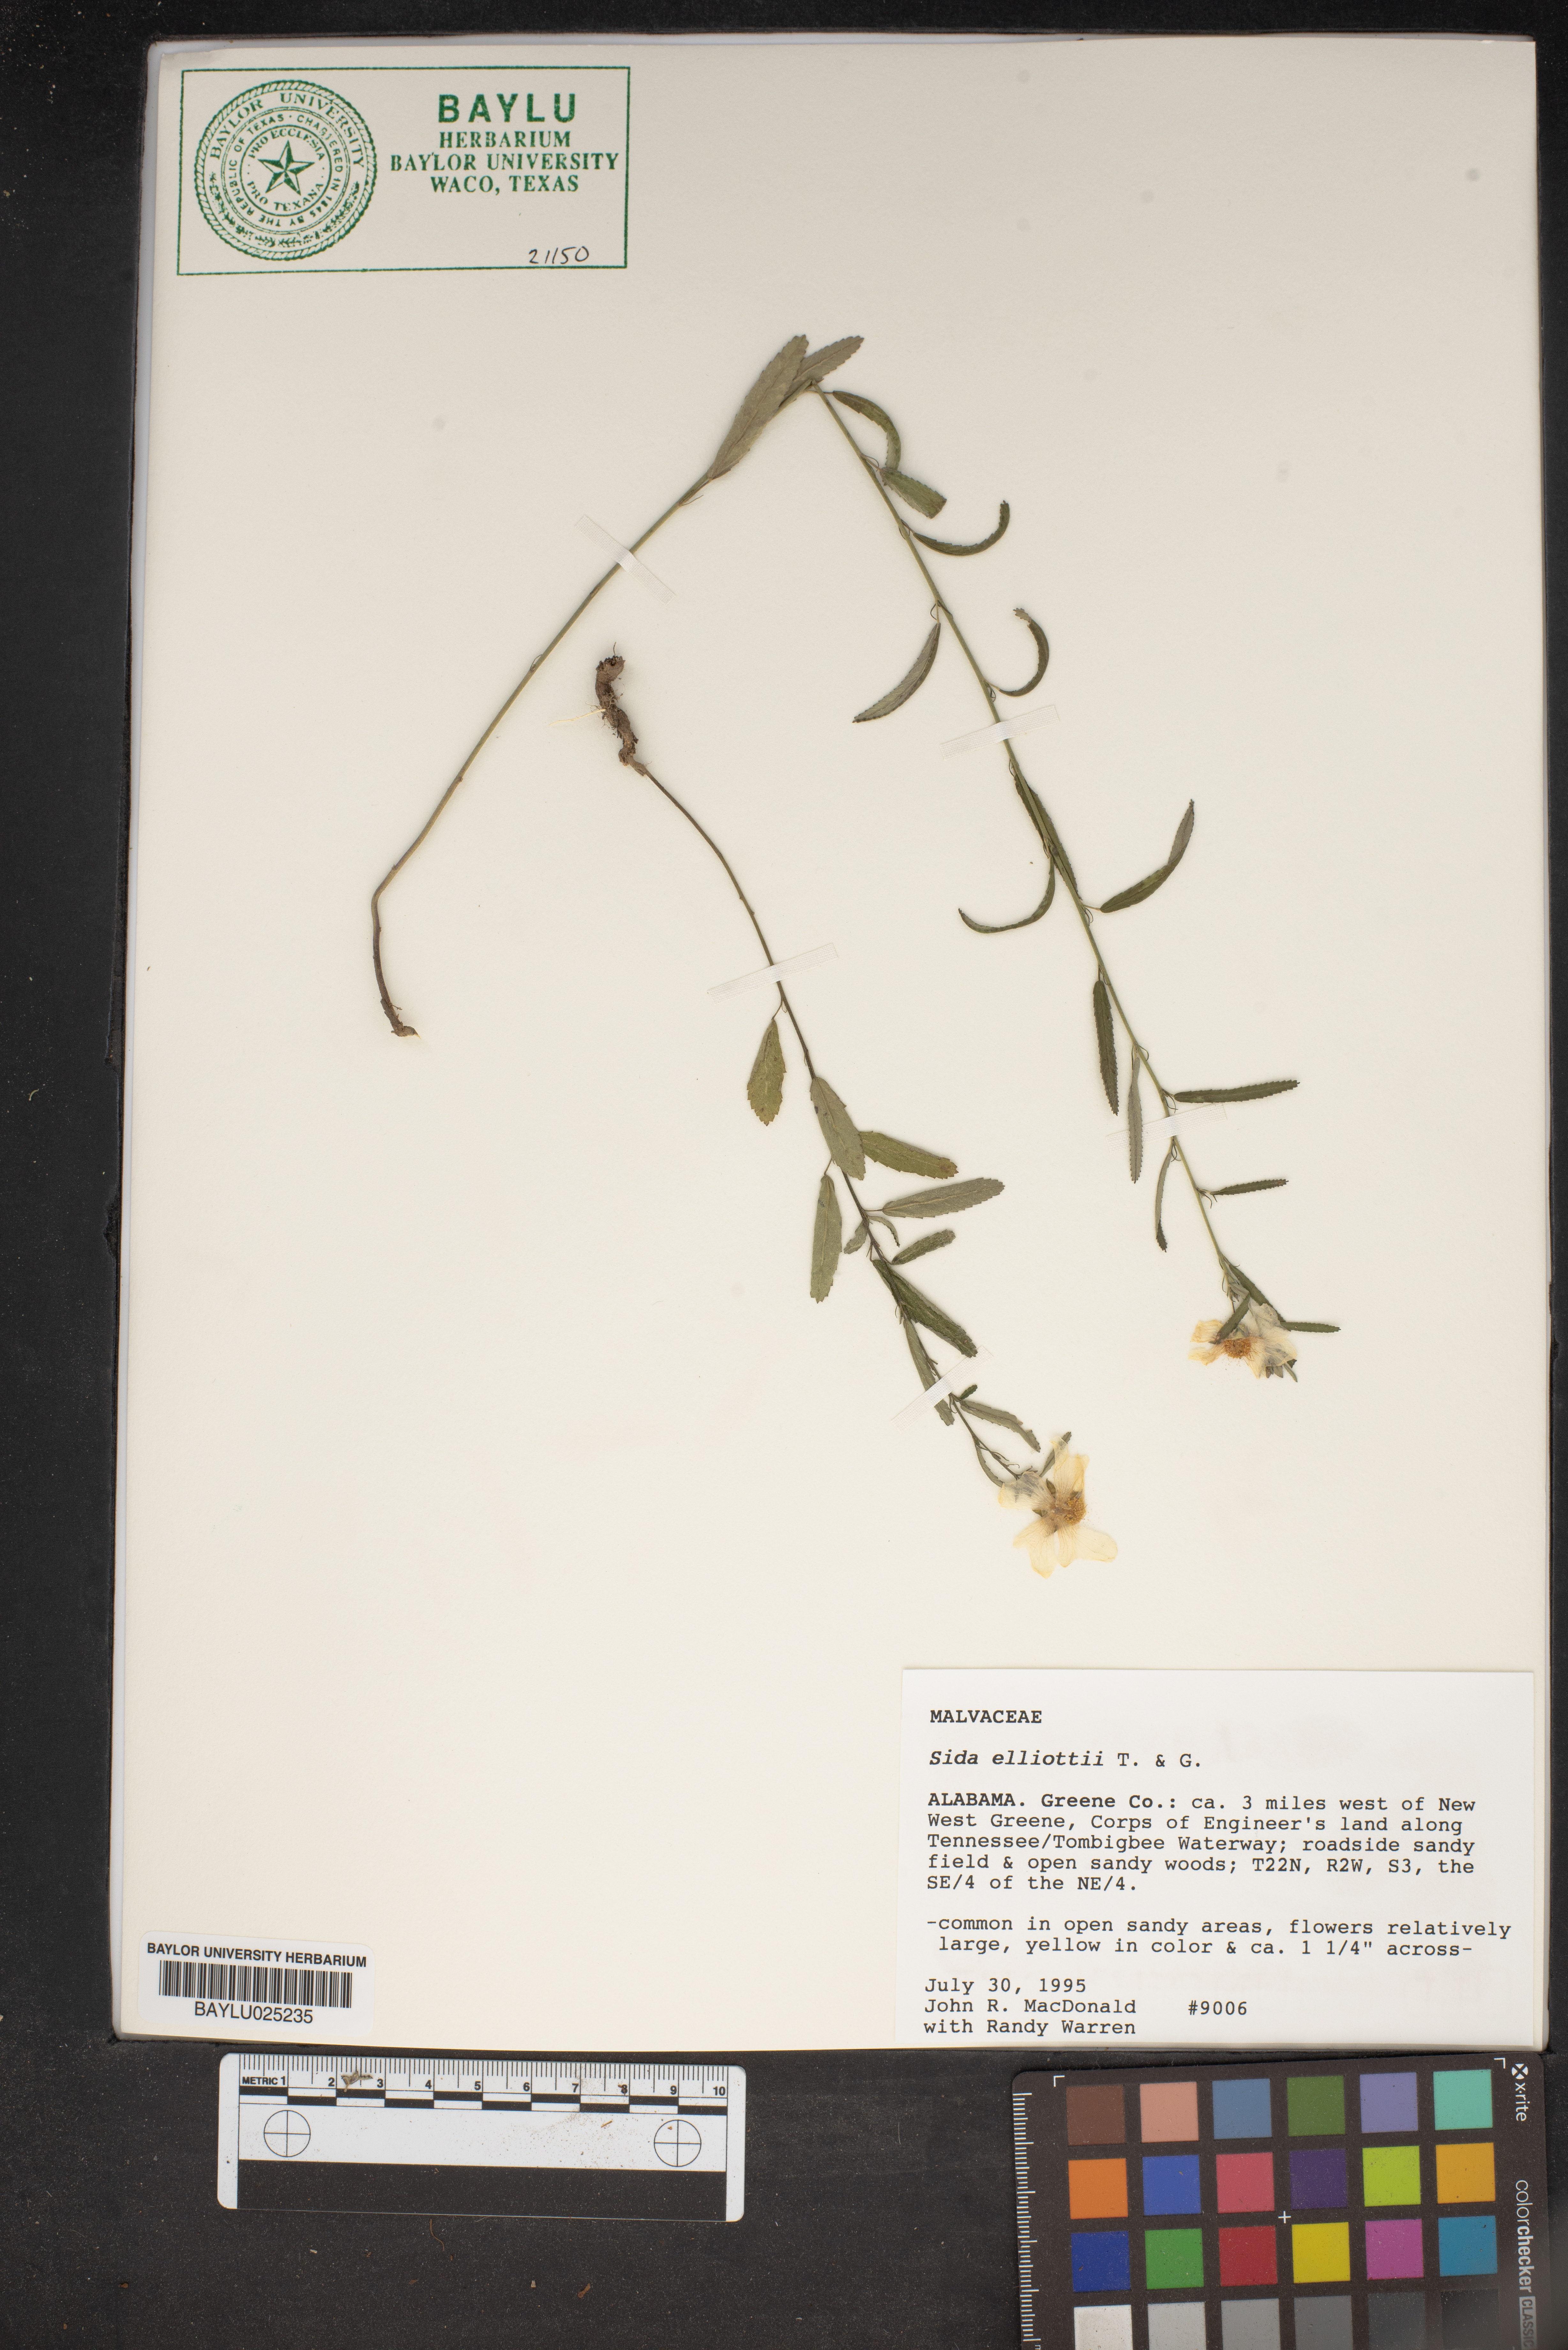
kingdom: Plantae
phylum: Tracheophyta
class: Magnoliopsida
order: Malvales
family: Malvaceae
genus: Sida
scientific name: Sida elliottii
